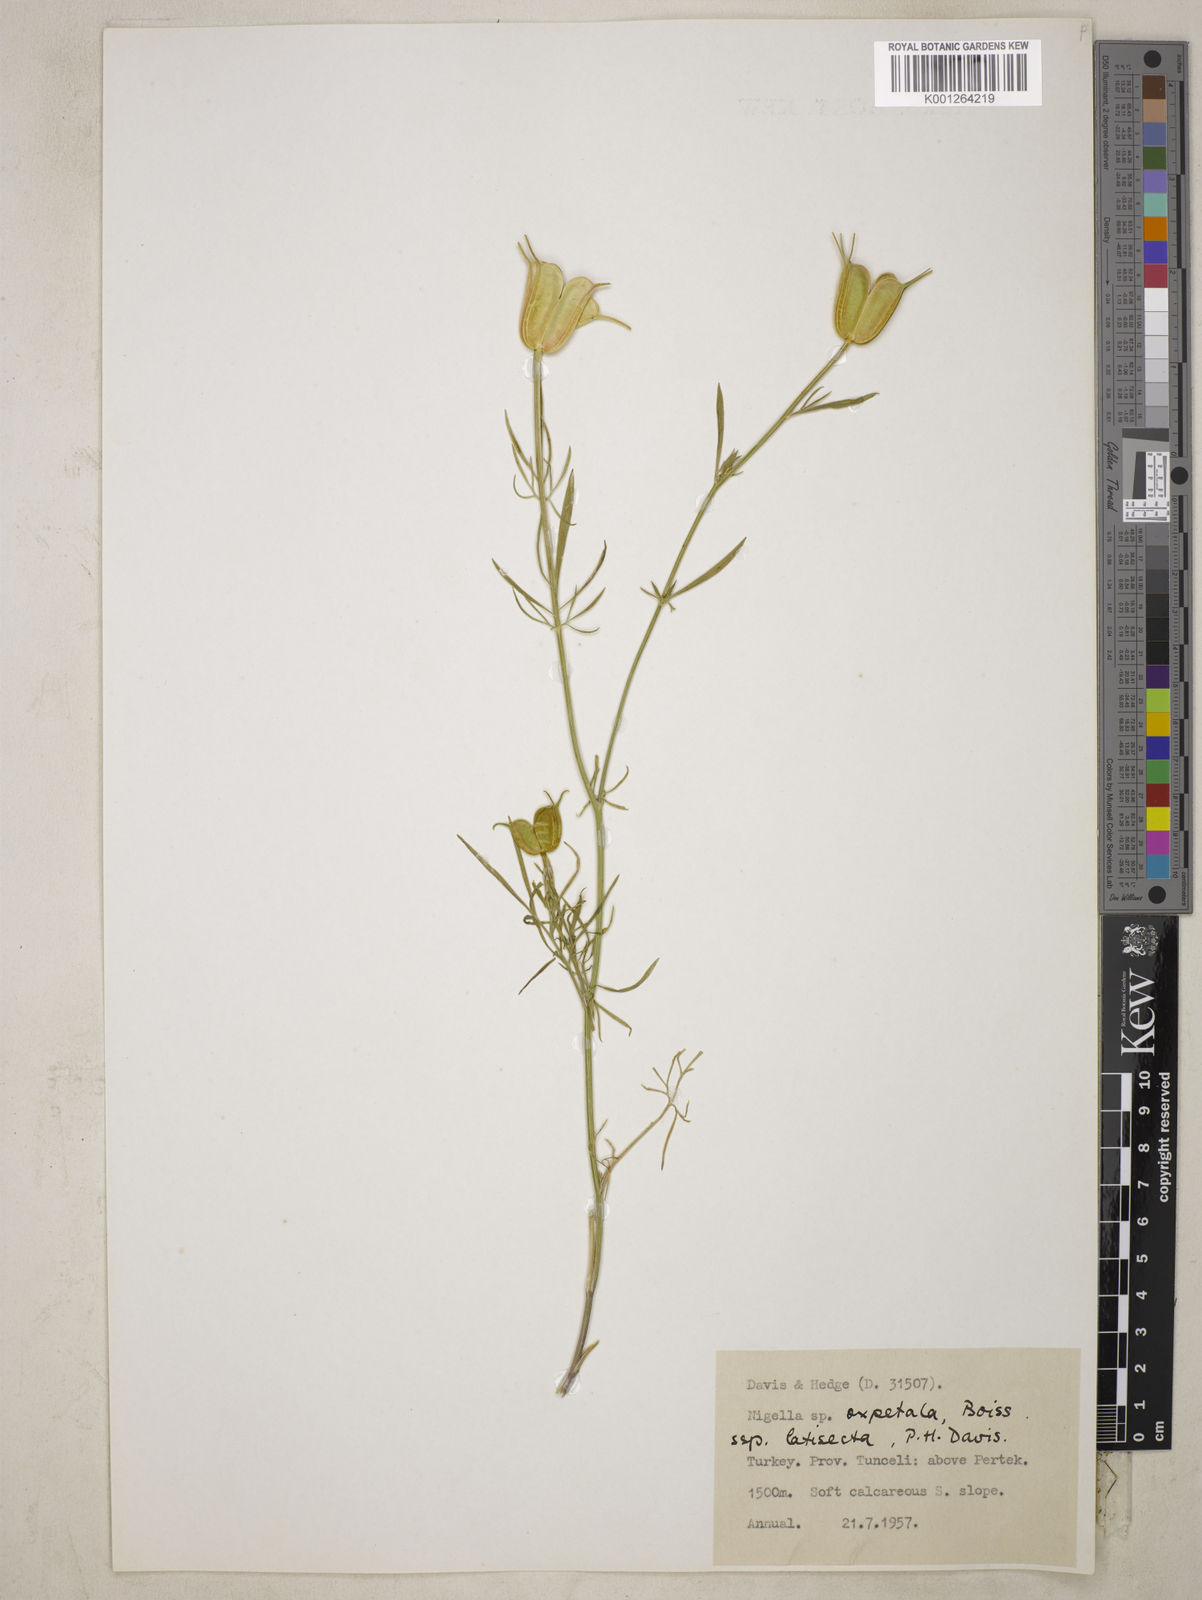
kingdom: Plantae
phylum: Tracheophyta
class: Magnoliopsida
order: Ranunculales
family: Ranunculaceae
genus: Nigella
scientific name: Nigella oxypetala
